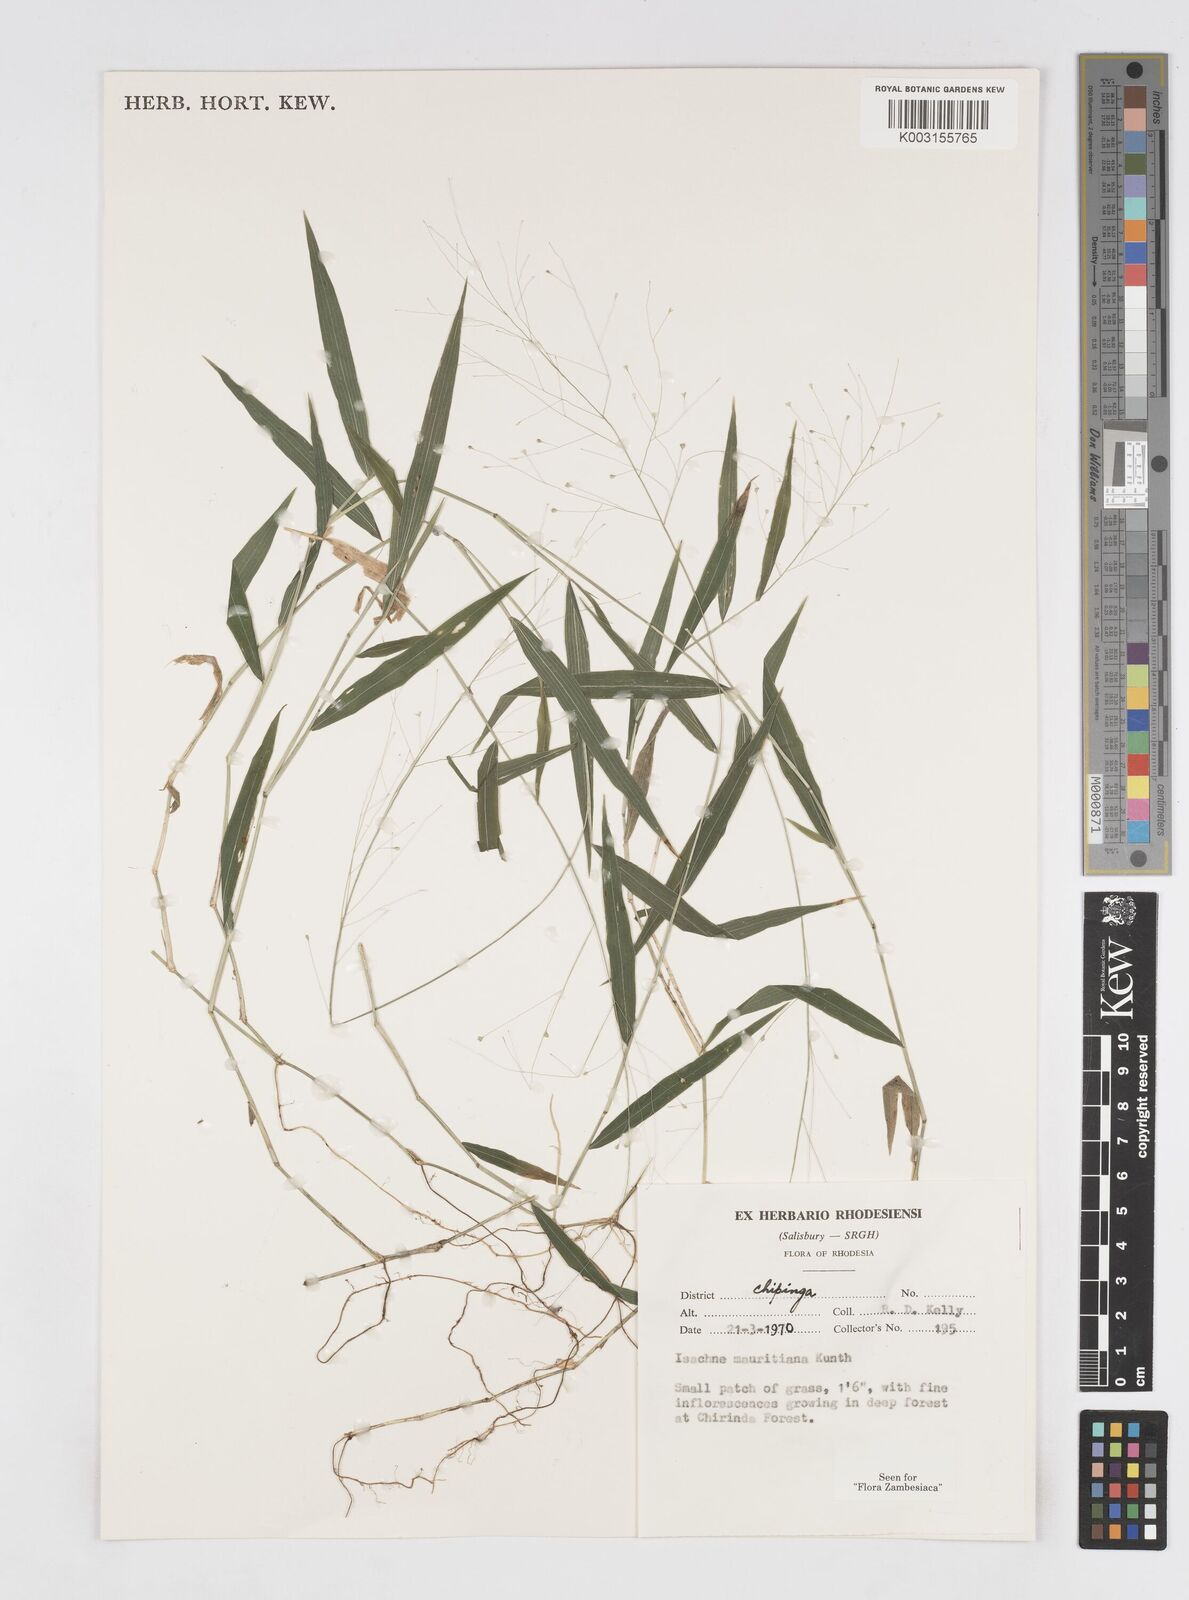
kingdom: Plantae
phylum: Tracheophyta
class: Liliopsida
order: Poales
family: Poaceae
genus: Isachne
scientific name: Isachne mauritiana
